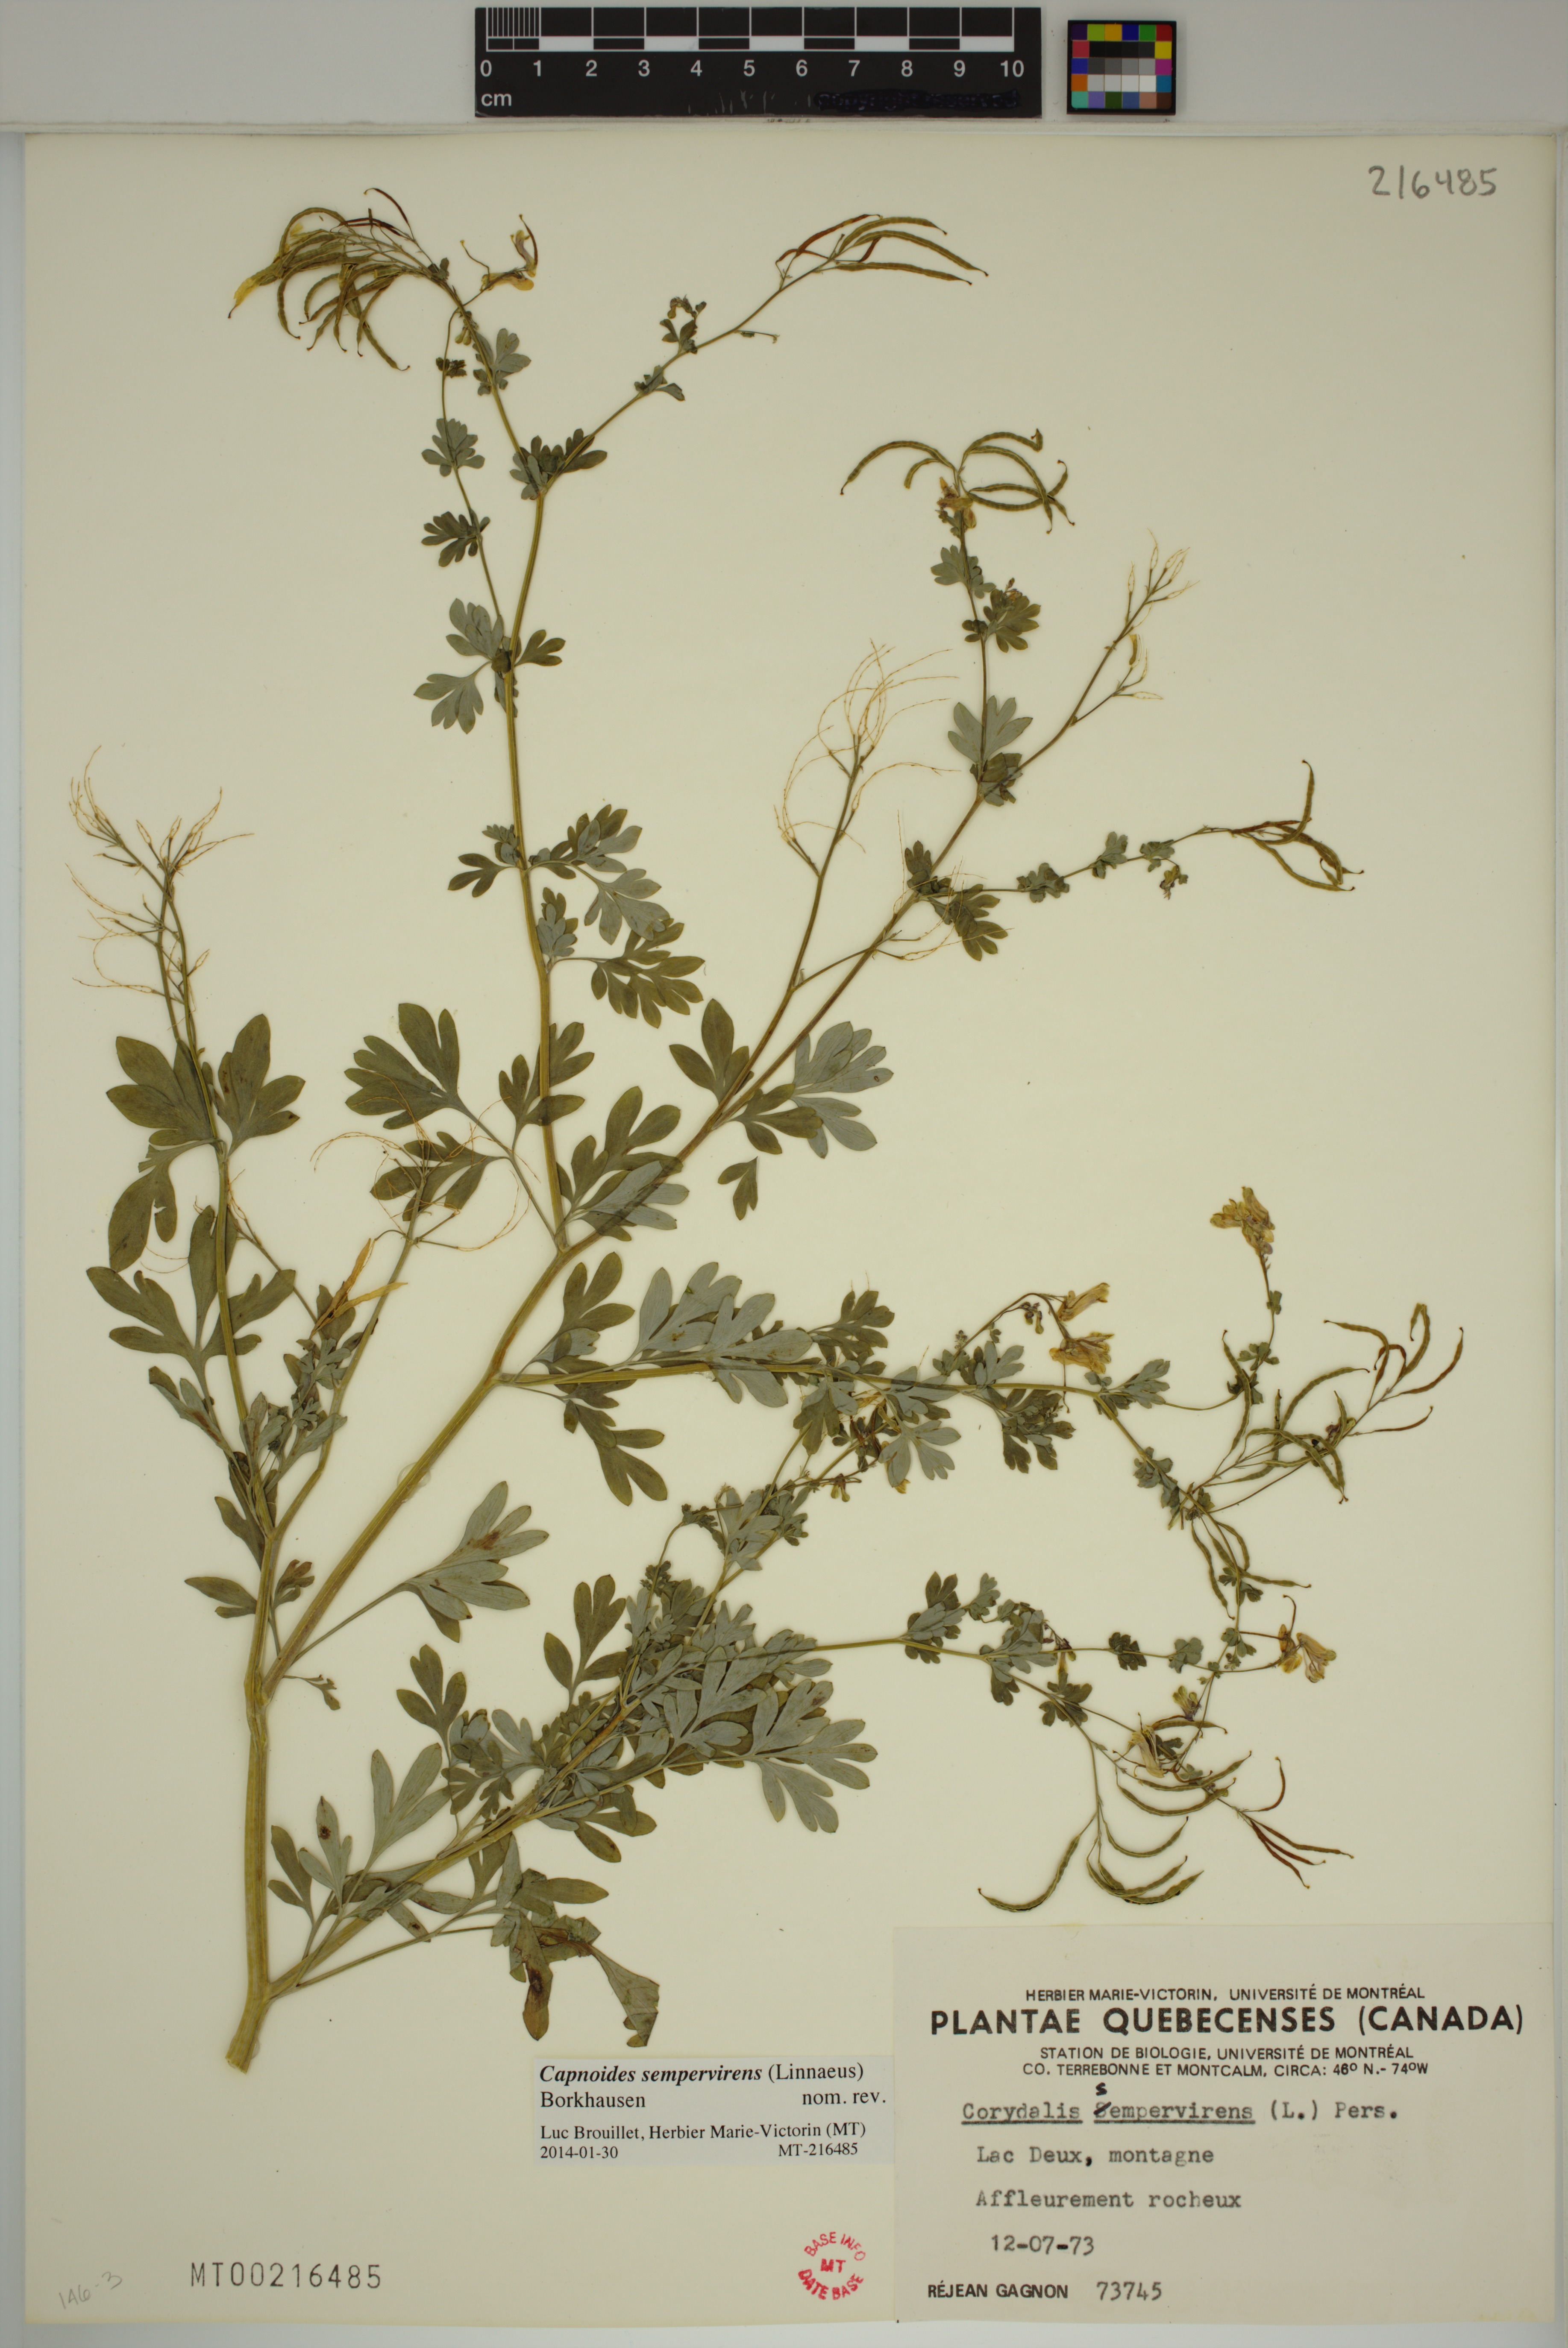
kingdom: Plantae
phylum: Tracheophyta
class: Magnoliopsida
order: Ranunculales
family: Papaveraceae
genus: Capnoides
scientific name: Capnoides sempervirens
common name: Rock harlequin
